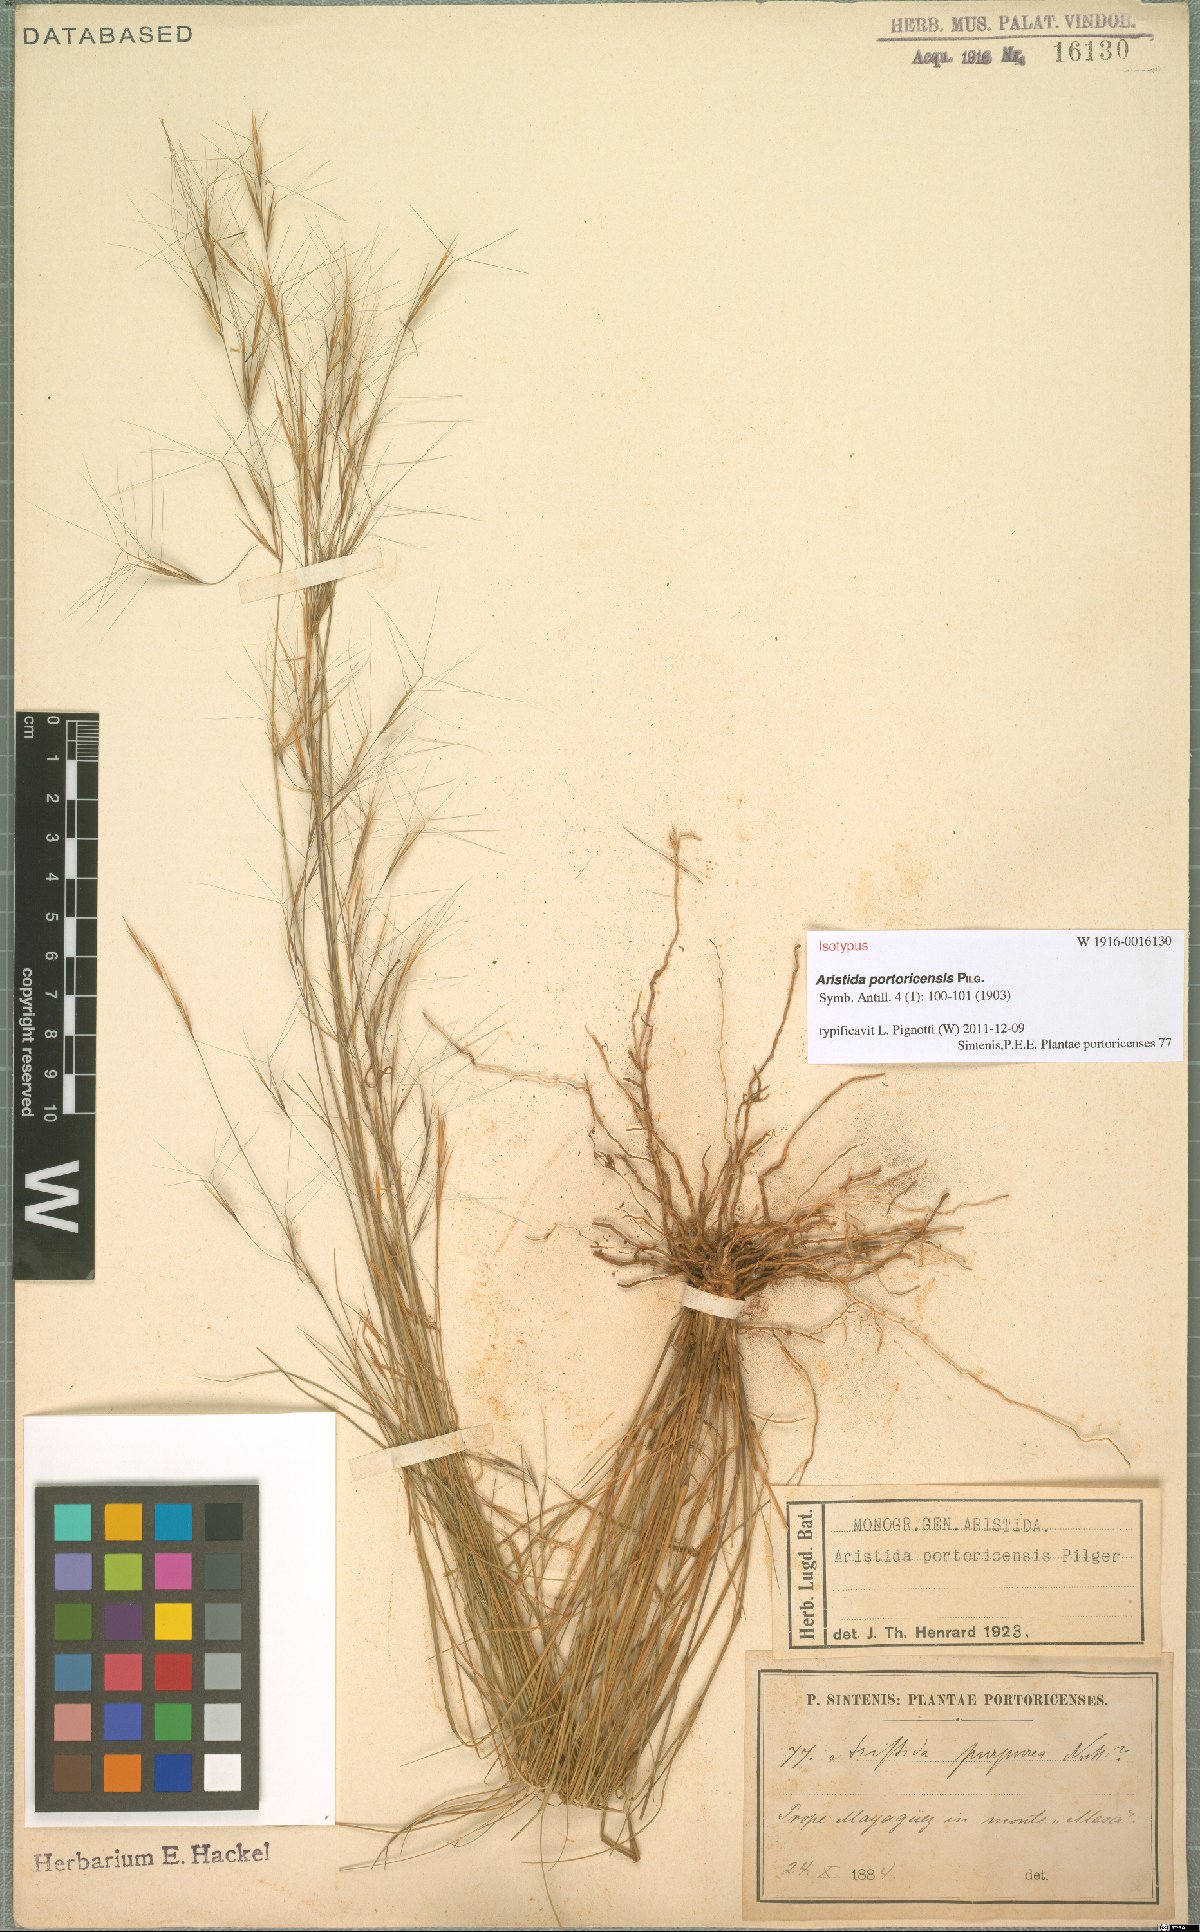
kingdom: Plantae
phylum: Tracheophyta
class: Liliopsida
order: Poales
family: Poaceae
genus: Aristida
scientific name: Aristida portoricensis
